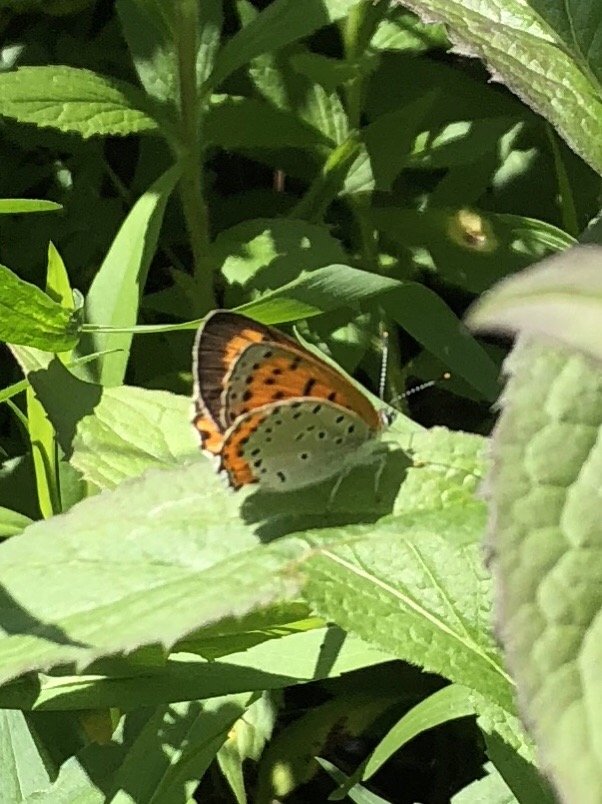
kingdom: Animalia
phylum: Arthropoda
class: Insecta
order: Lepidoptera
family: Sesiidae
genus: Sesia
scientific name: Sesia Lycaena hyllus
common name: Bronze Copper
